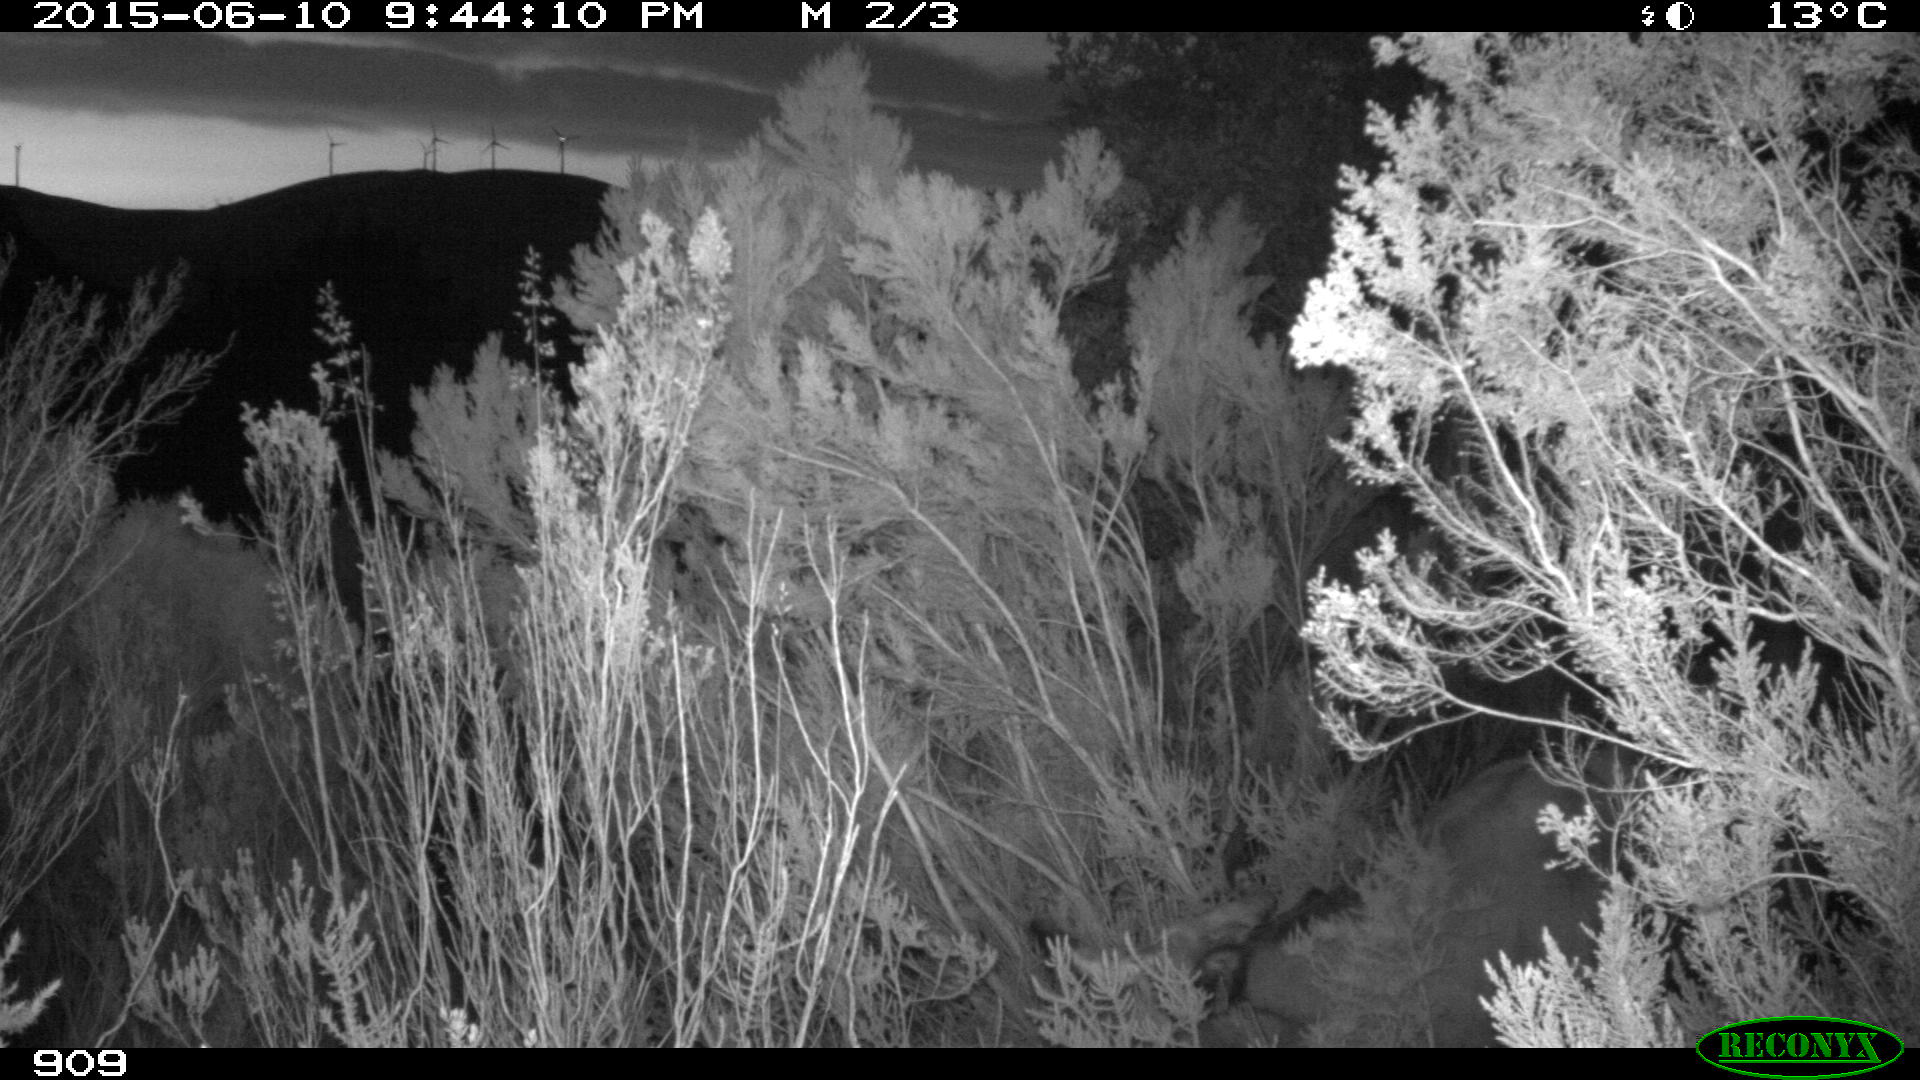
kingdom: Animalia
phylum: Chordata
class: Mammalia
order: Artiodactyla
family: Bovidae
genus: Bos
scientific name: Bos taurus
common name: Domesticated cattle
